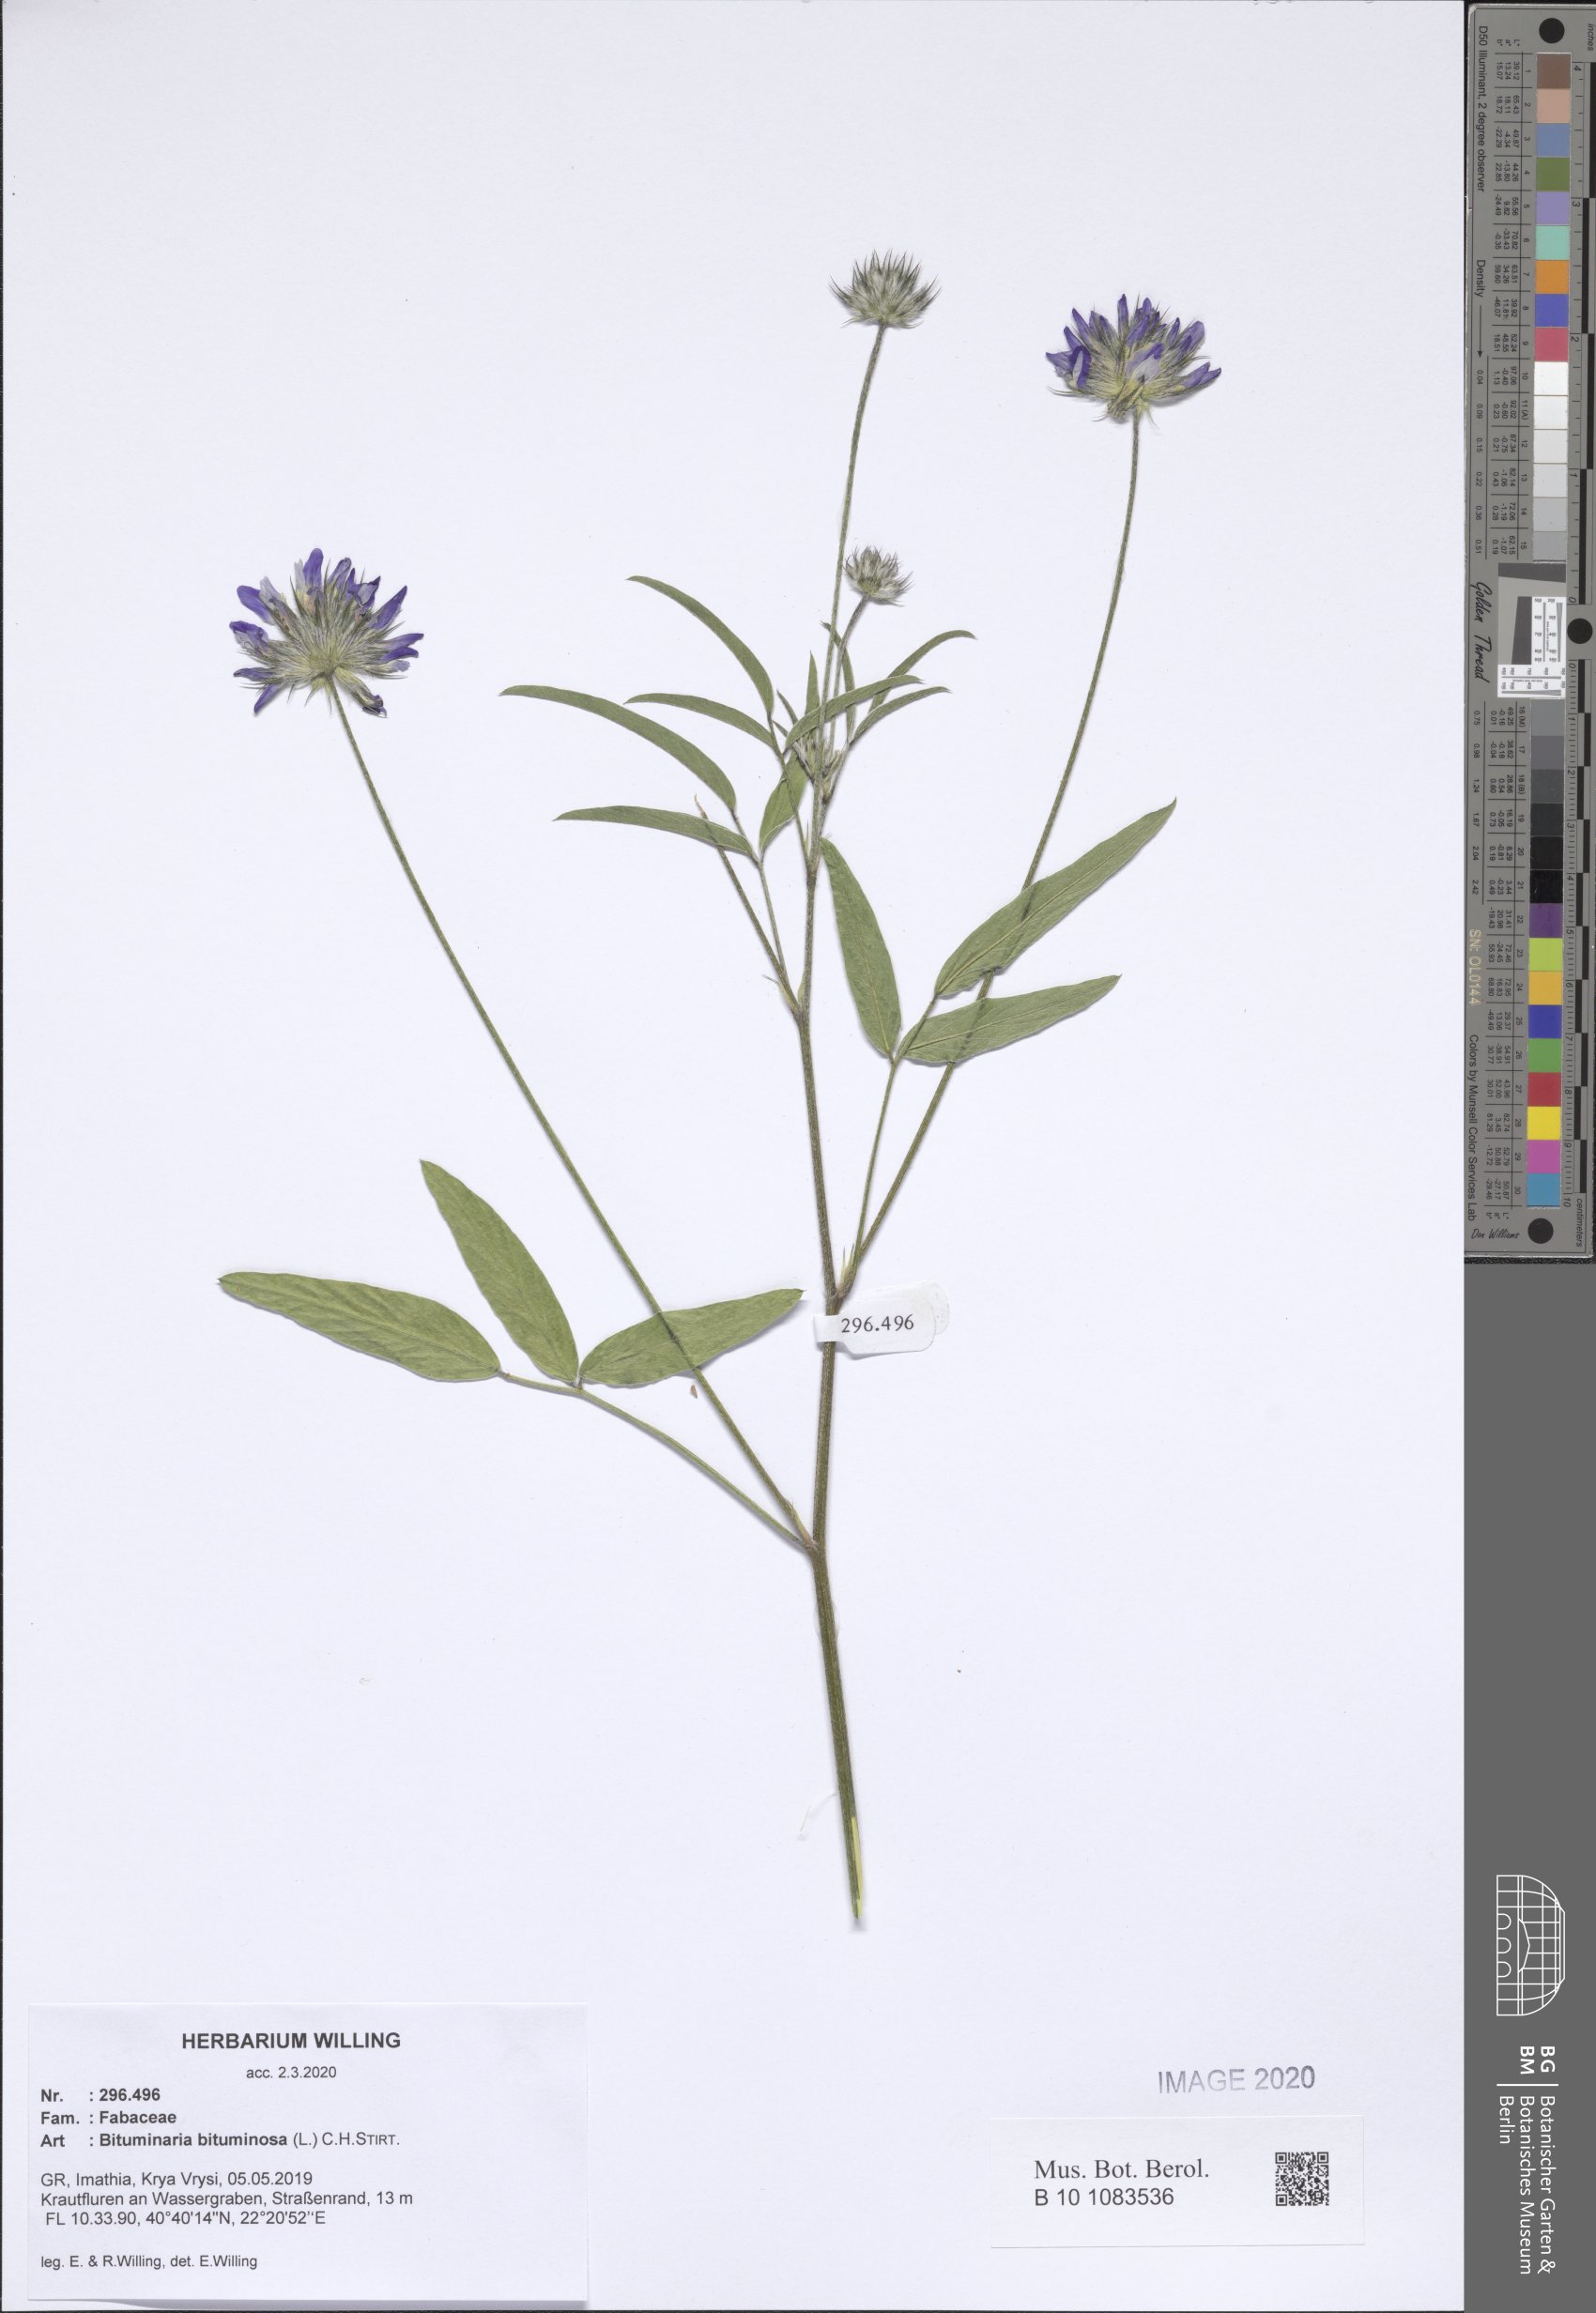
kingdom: Plantae
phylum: Tracheophyta
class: Magnoliopsida
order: Fabales
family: Fabaceae
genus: Bituminaria
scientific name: Bituminaria bituminosa
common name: Arabian pea
